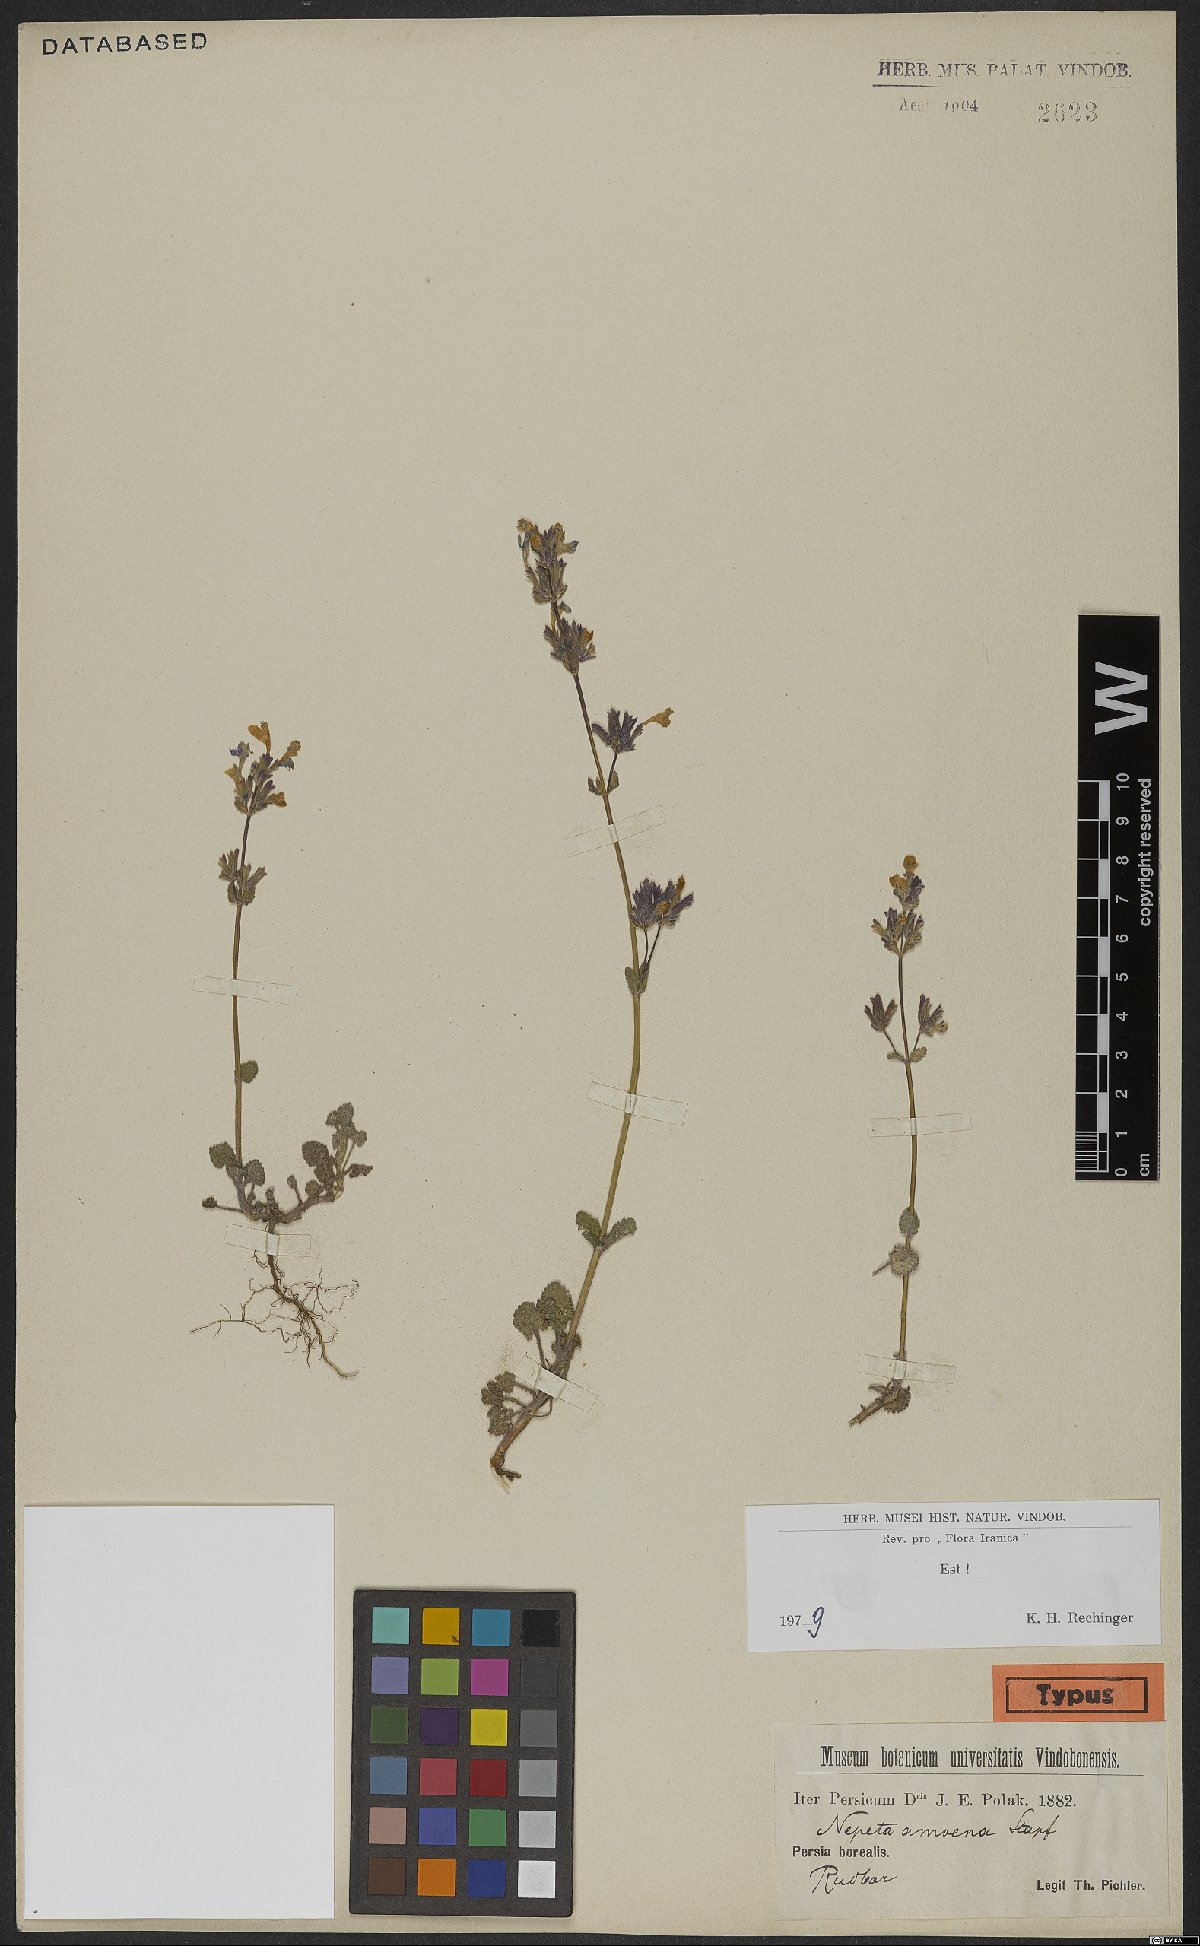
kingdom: Plantae
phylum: Tracheophyta
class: Magnoliopsida
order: Lamiales
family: Lamiaceae
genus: Nepeta
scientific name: Nepeta amoena
